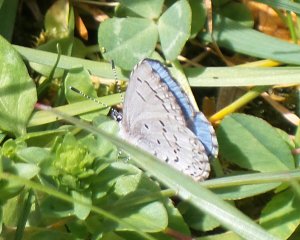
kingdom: Animalia
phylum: Arthropoda
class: Insecta
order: Lepidoptera
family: Lycaenidae
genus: Celastrina
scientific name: Celastrina
